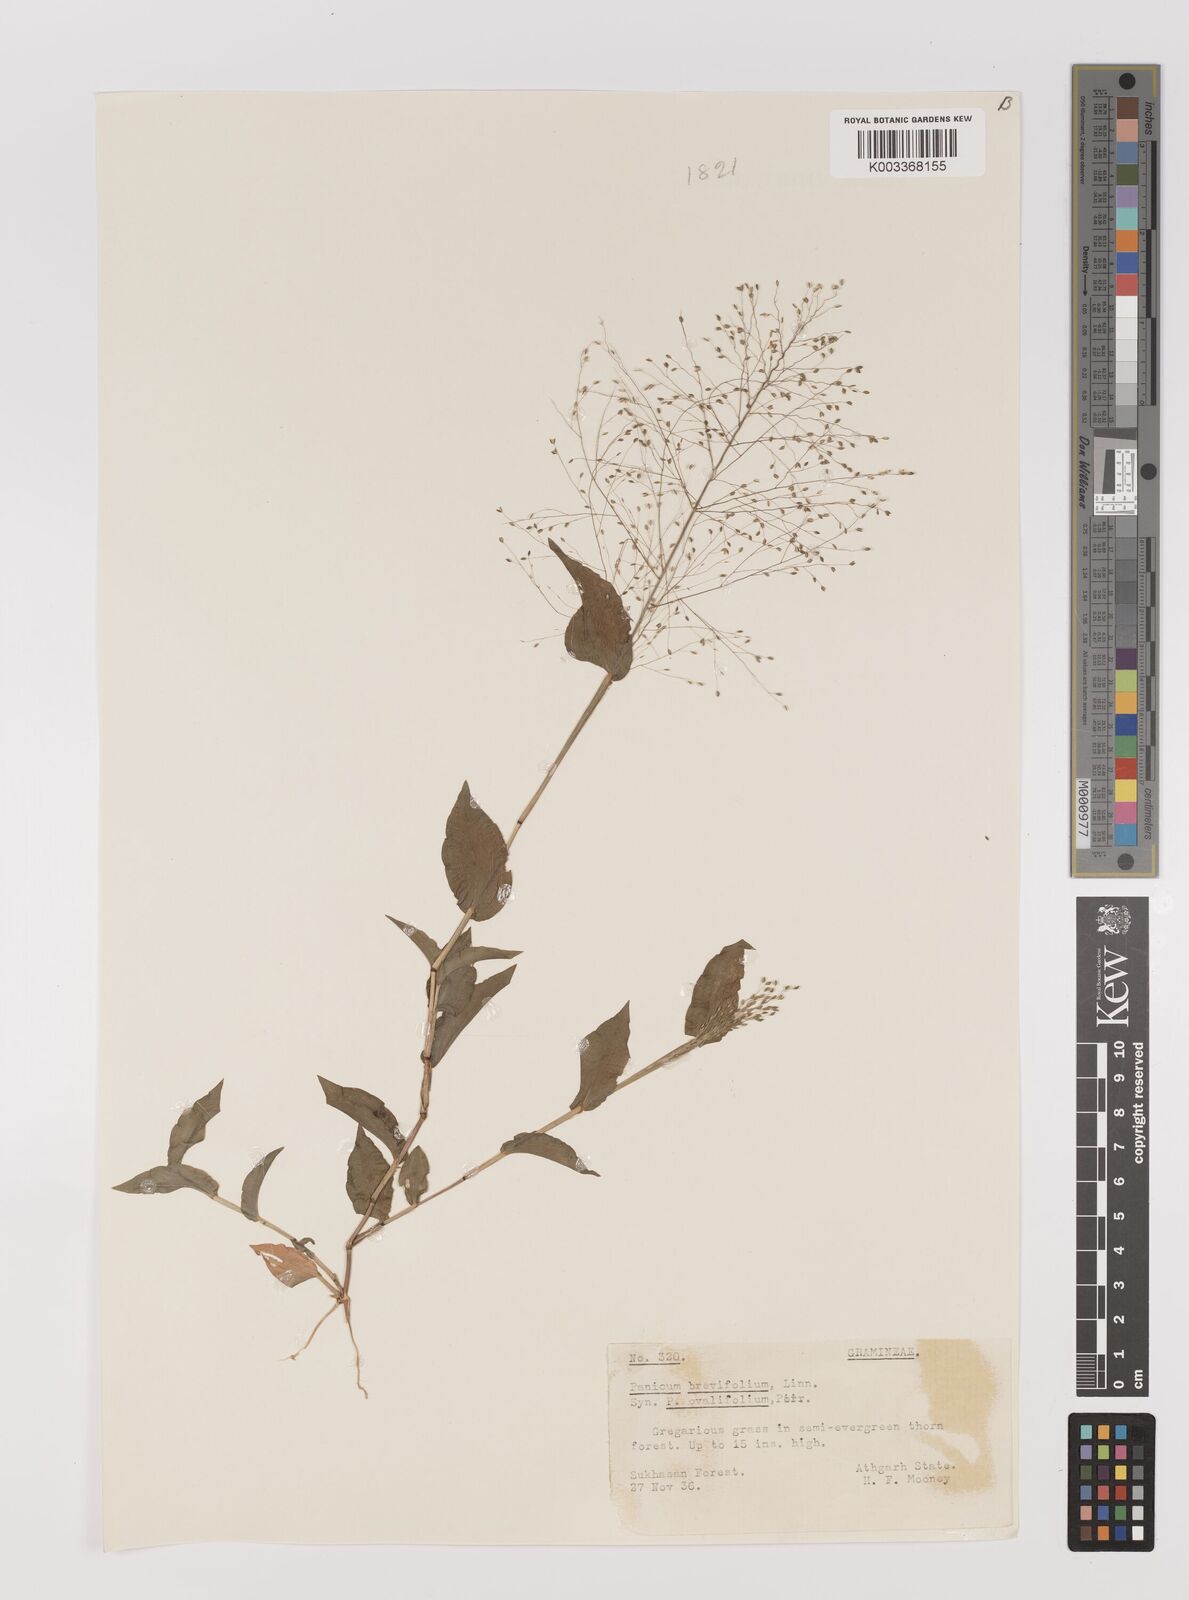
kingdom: Plantae
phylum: Tracheophyta
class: Liliopsida
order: Poales
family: Poaceae
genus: Panicum
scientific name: Panicum brevifolium
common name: Shortleaf panic grass
